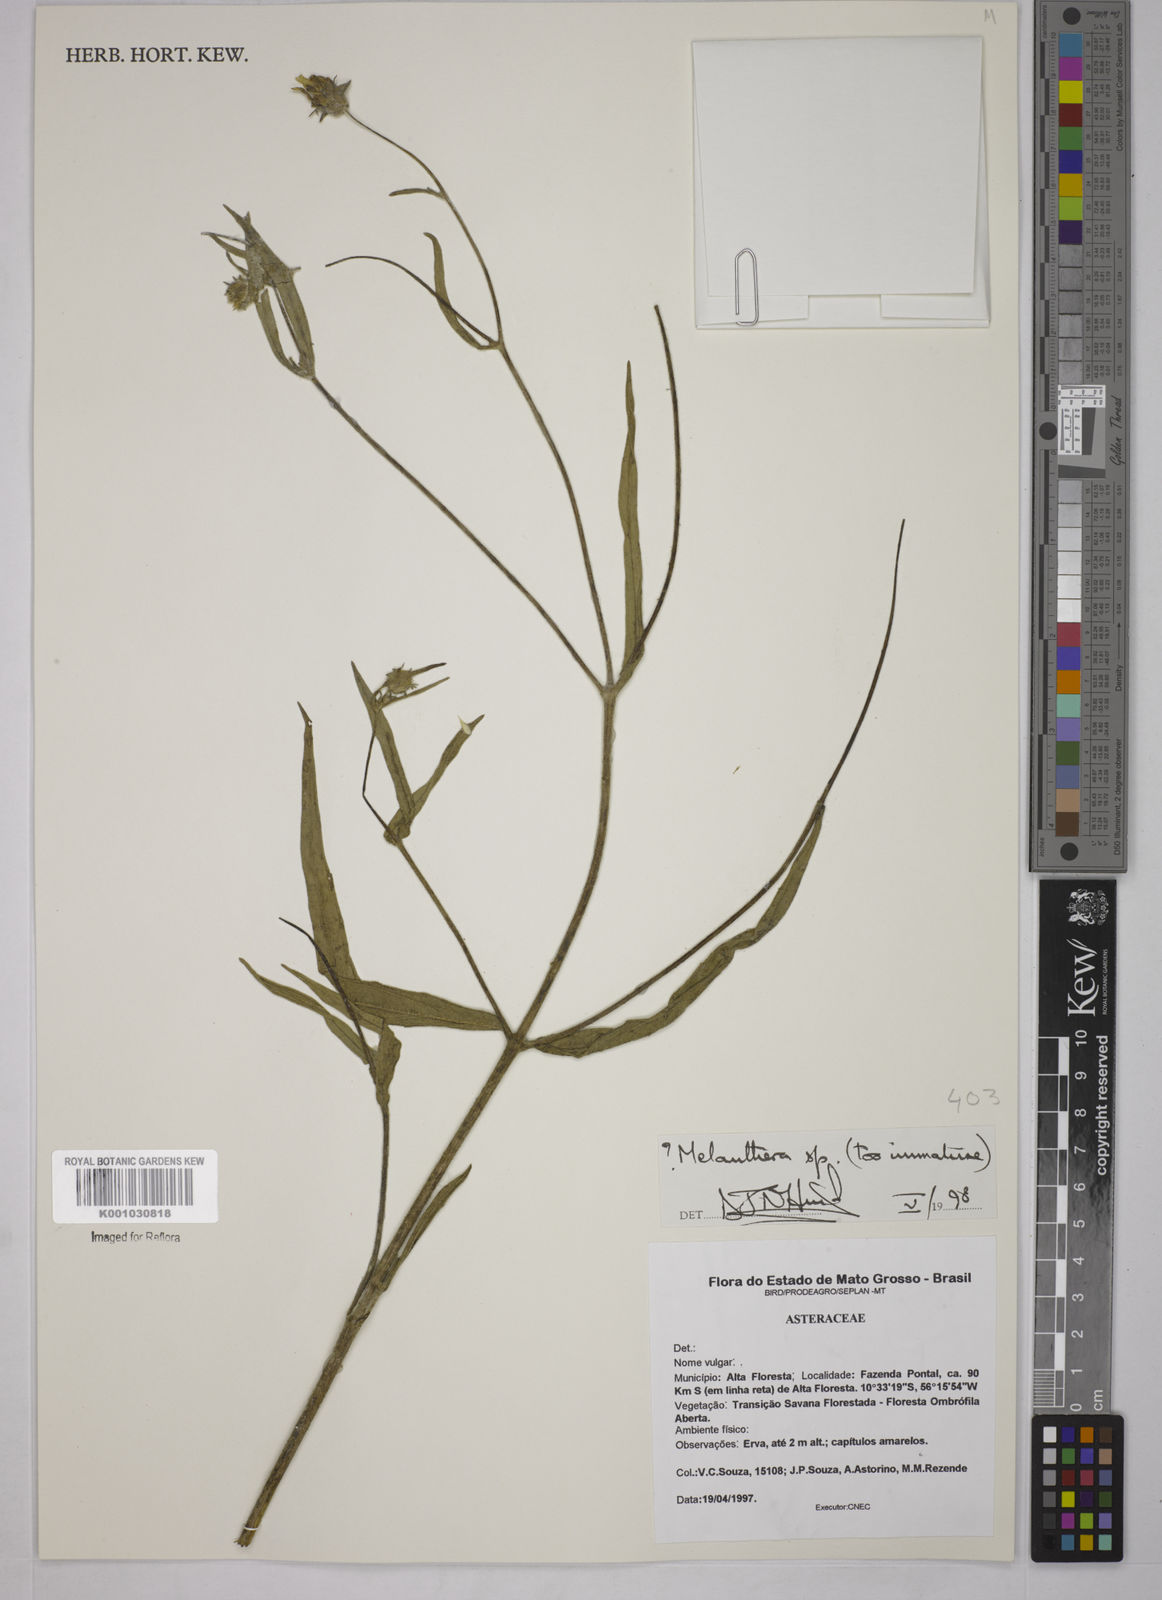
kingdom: Plantae
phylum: Tracheophyta
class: Magnoliopsida
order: Asterales
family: Asteraceae
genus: Melanthera
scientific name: Melanthera
